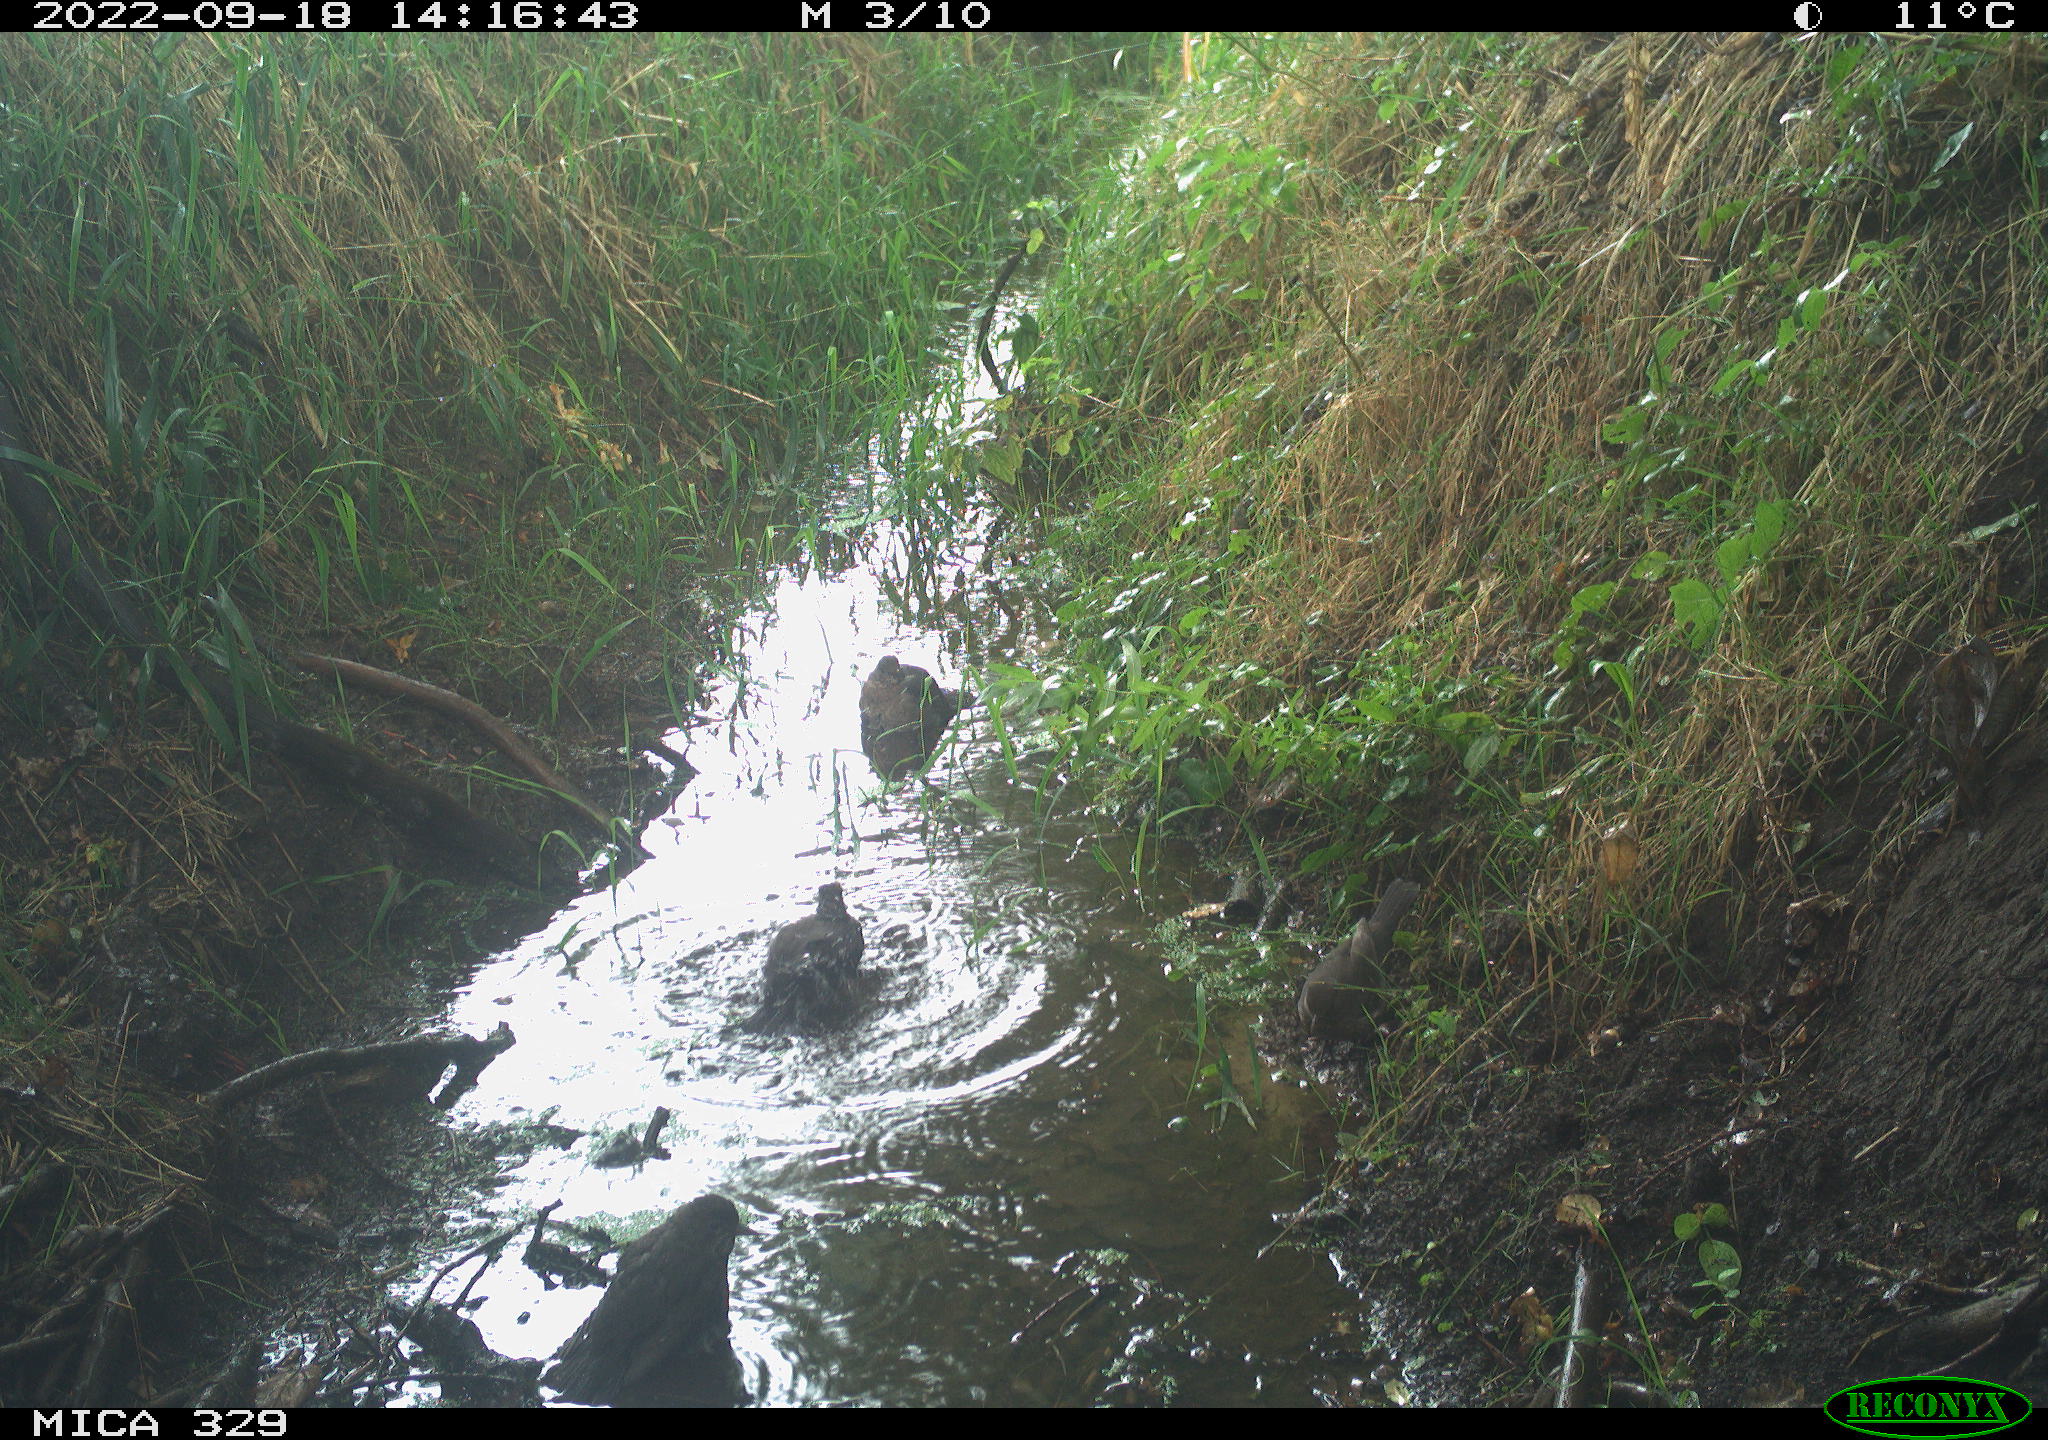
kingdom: Animalia
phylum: Chordata
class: Aves
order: Passeriformes
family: Turdidae
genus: Turdus
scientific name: Turdus merula
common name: Common blackbird
